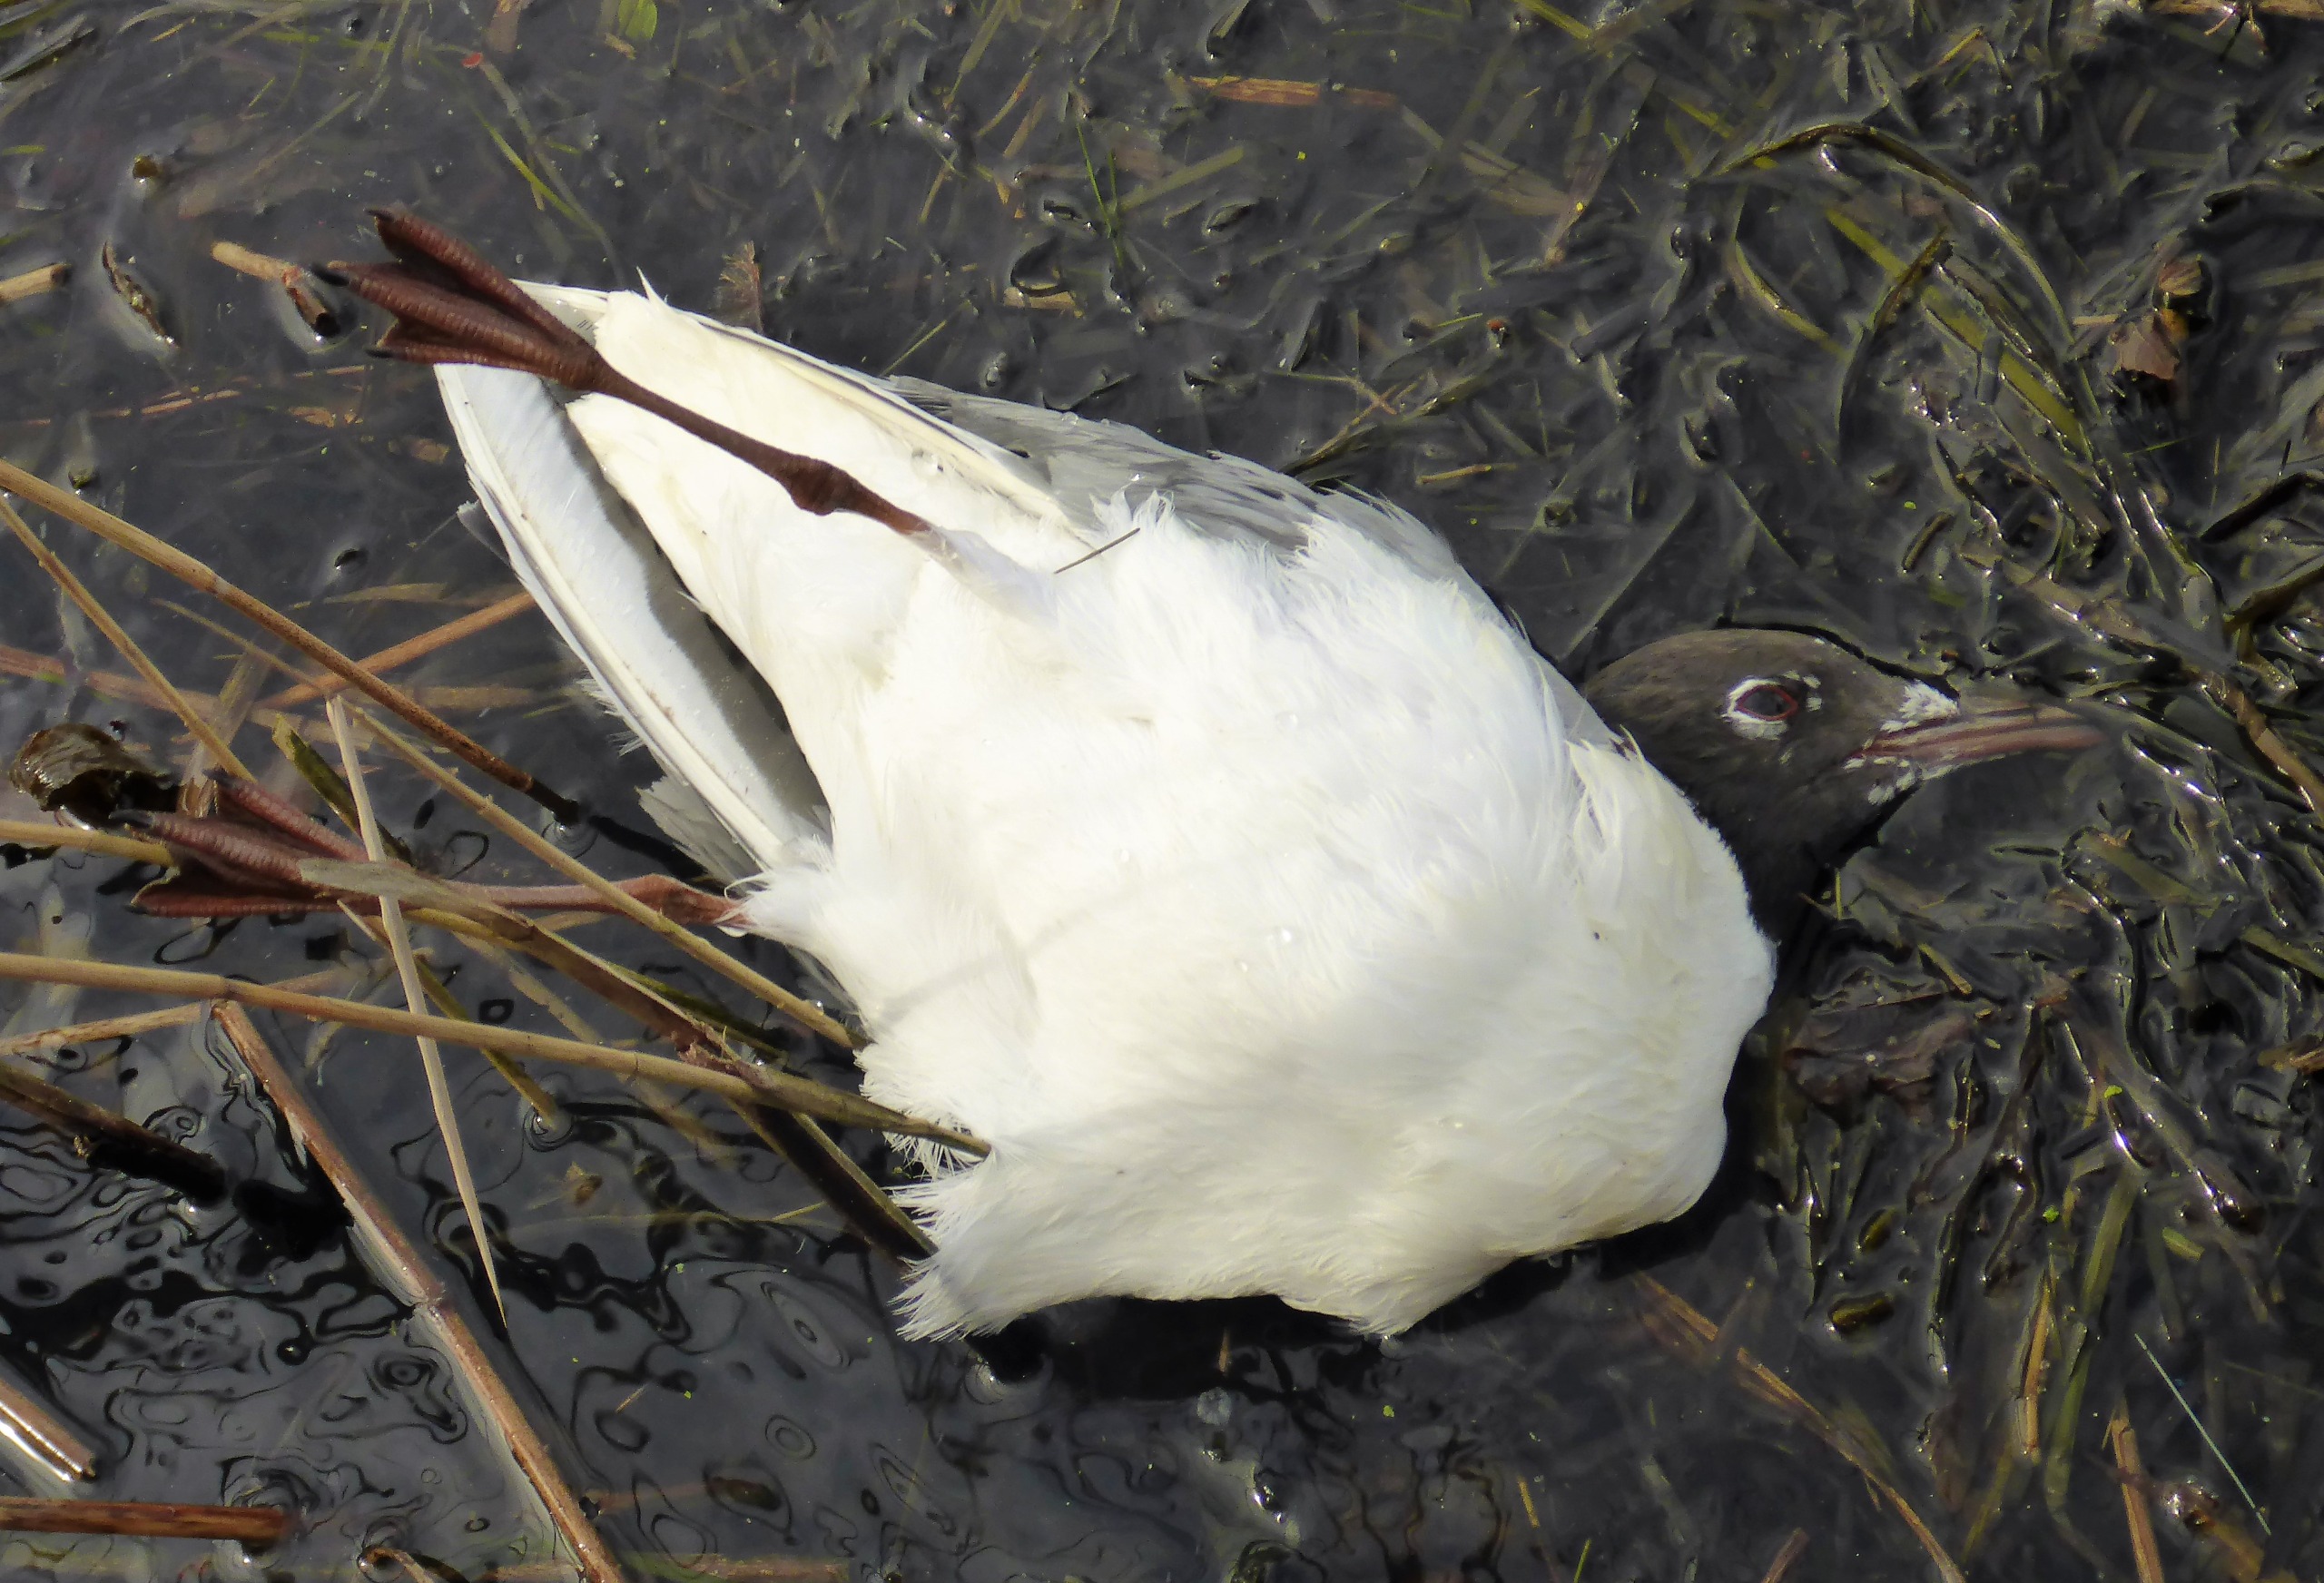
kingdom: Animalia
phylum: Chordata
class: Aves
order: Charadriiformes
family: Laridae
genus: Chroicocephalus
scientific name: Chroicocephalus ridibundus
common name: Hættemåge
